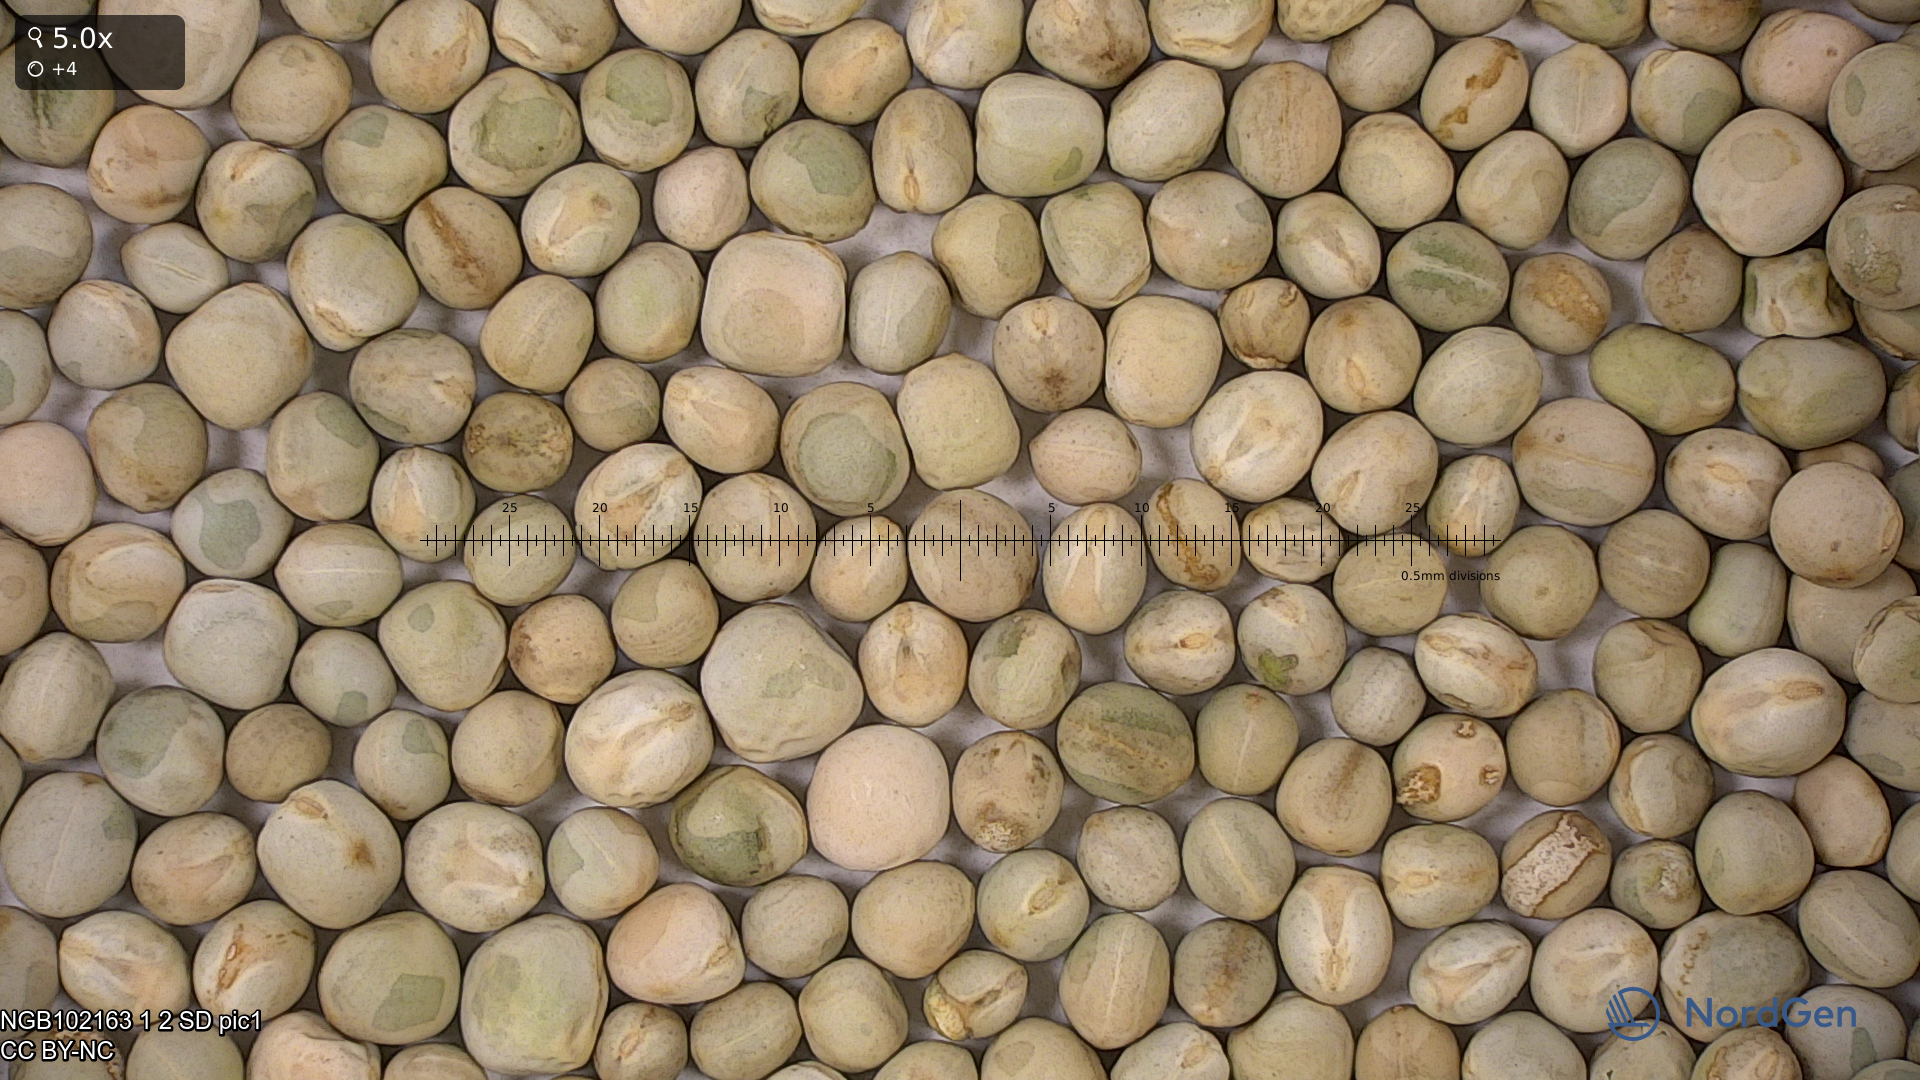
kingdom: Plantae
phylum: Tracheophyta
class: Magnoliopsida
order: Fabales
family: Fabaceae
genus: Lathyrus
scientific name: Lathyrus oleraceus
